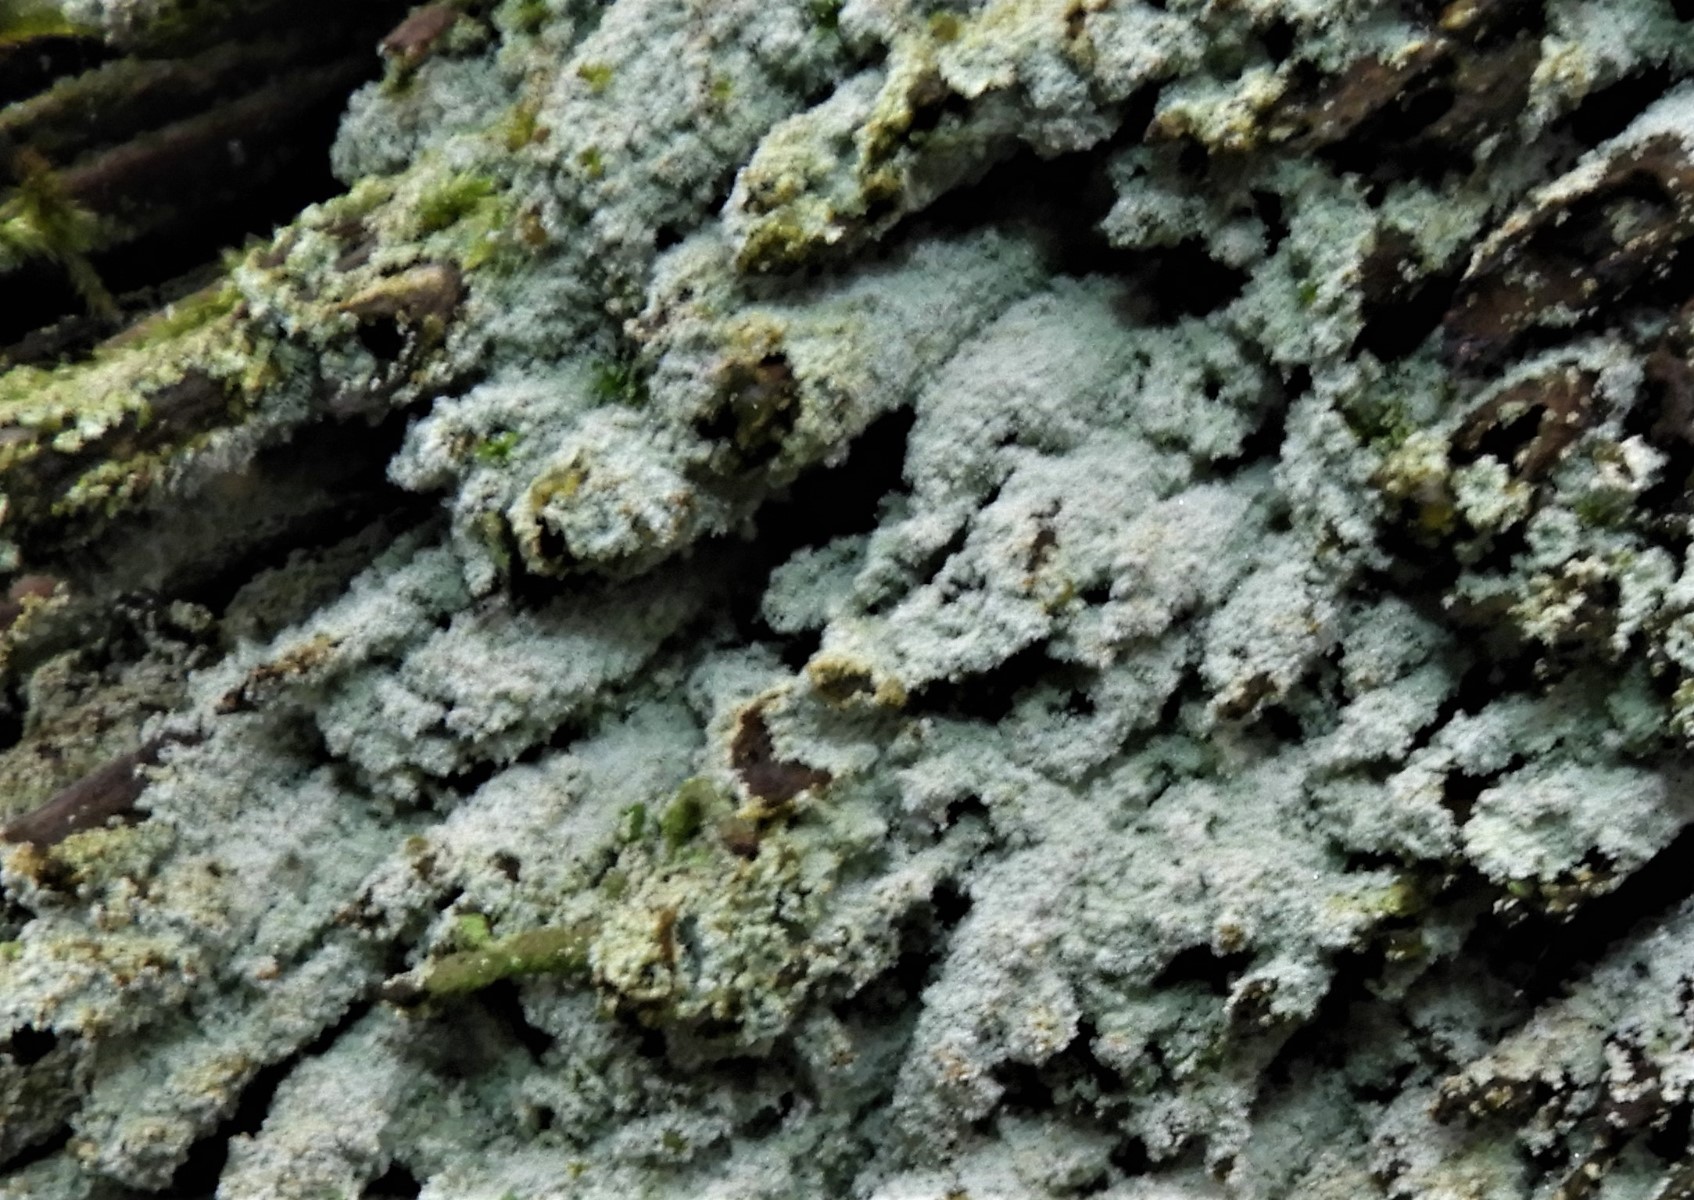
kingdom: Fungi
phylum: Ascomycota
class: Lecanoromycetes
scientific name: Lecanoromycetes
